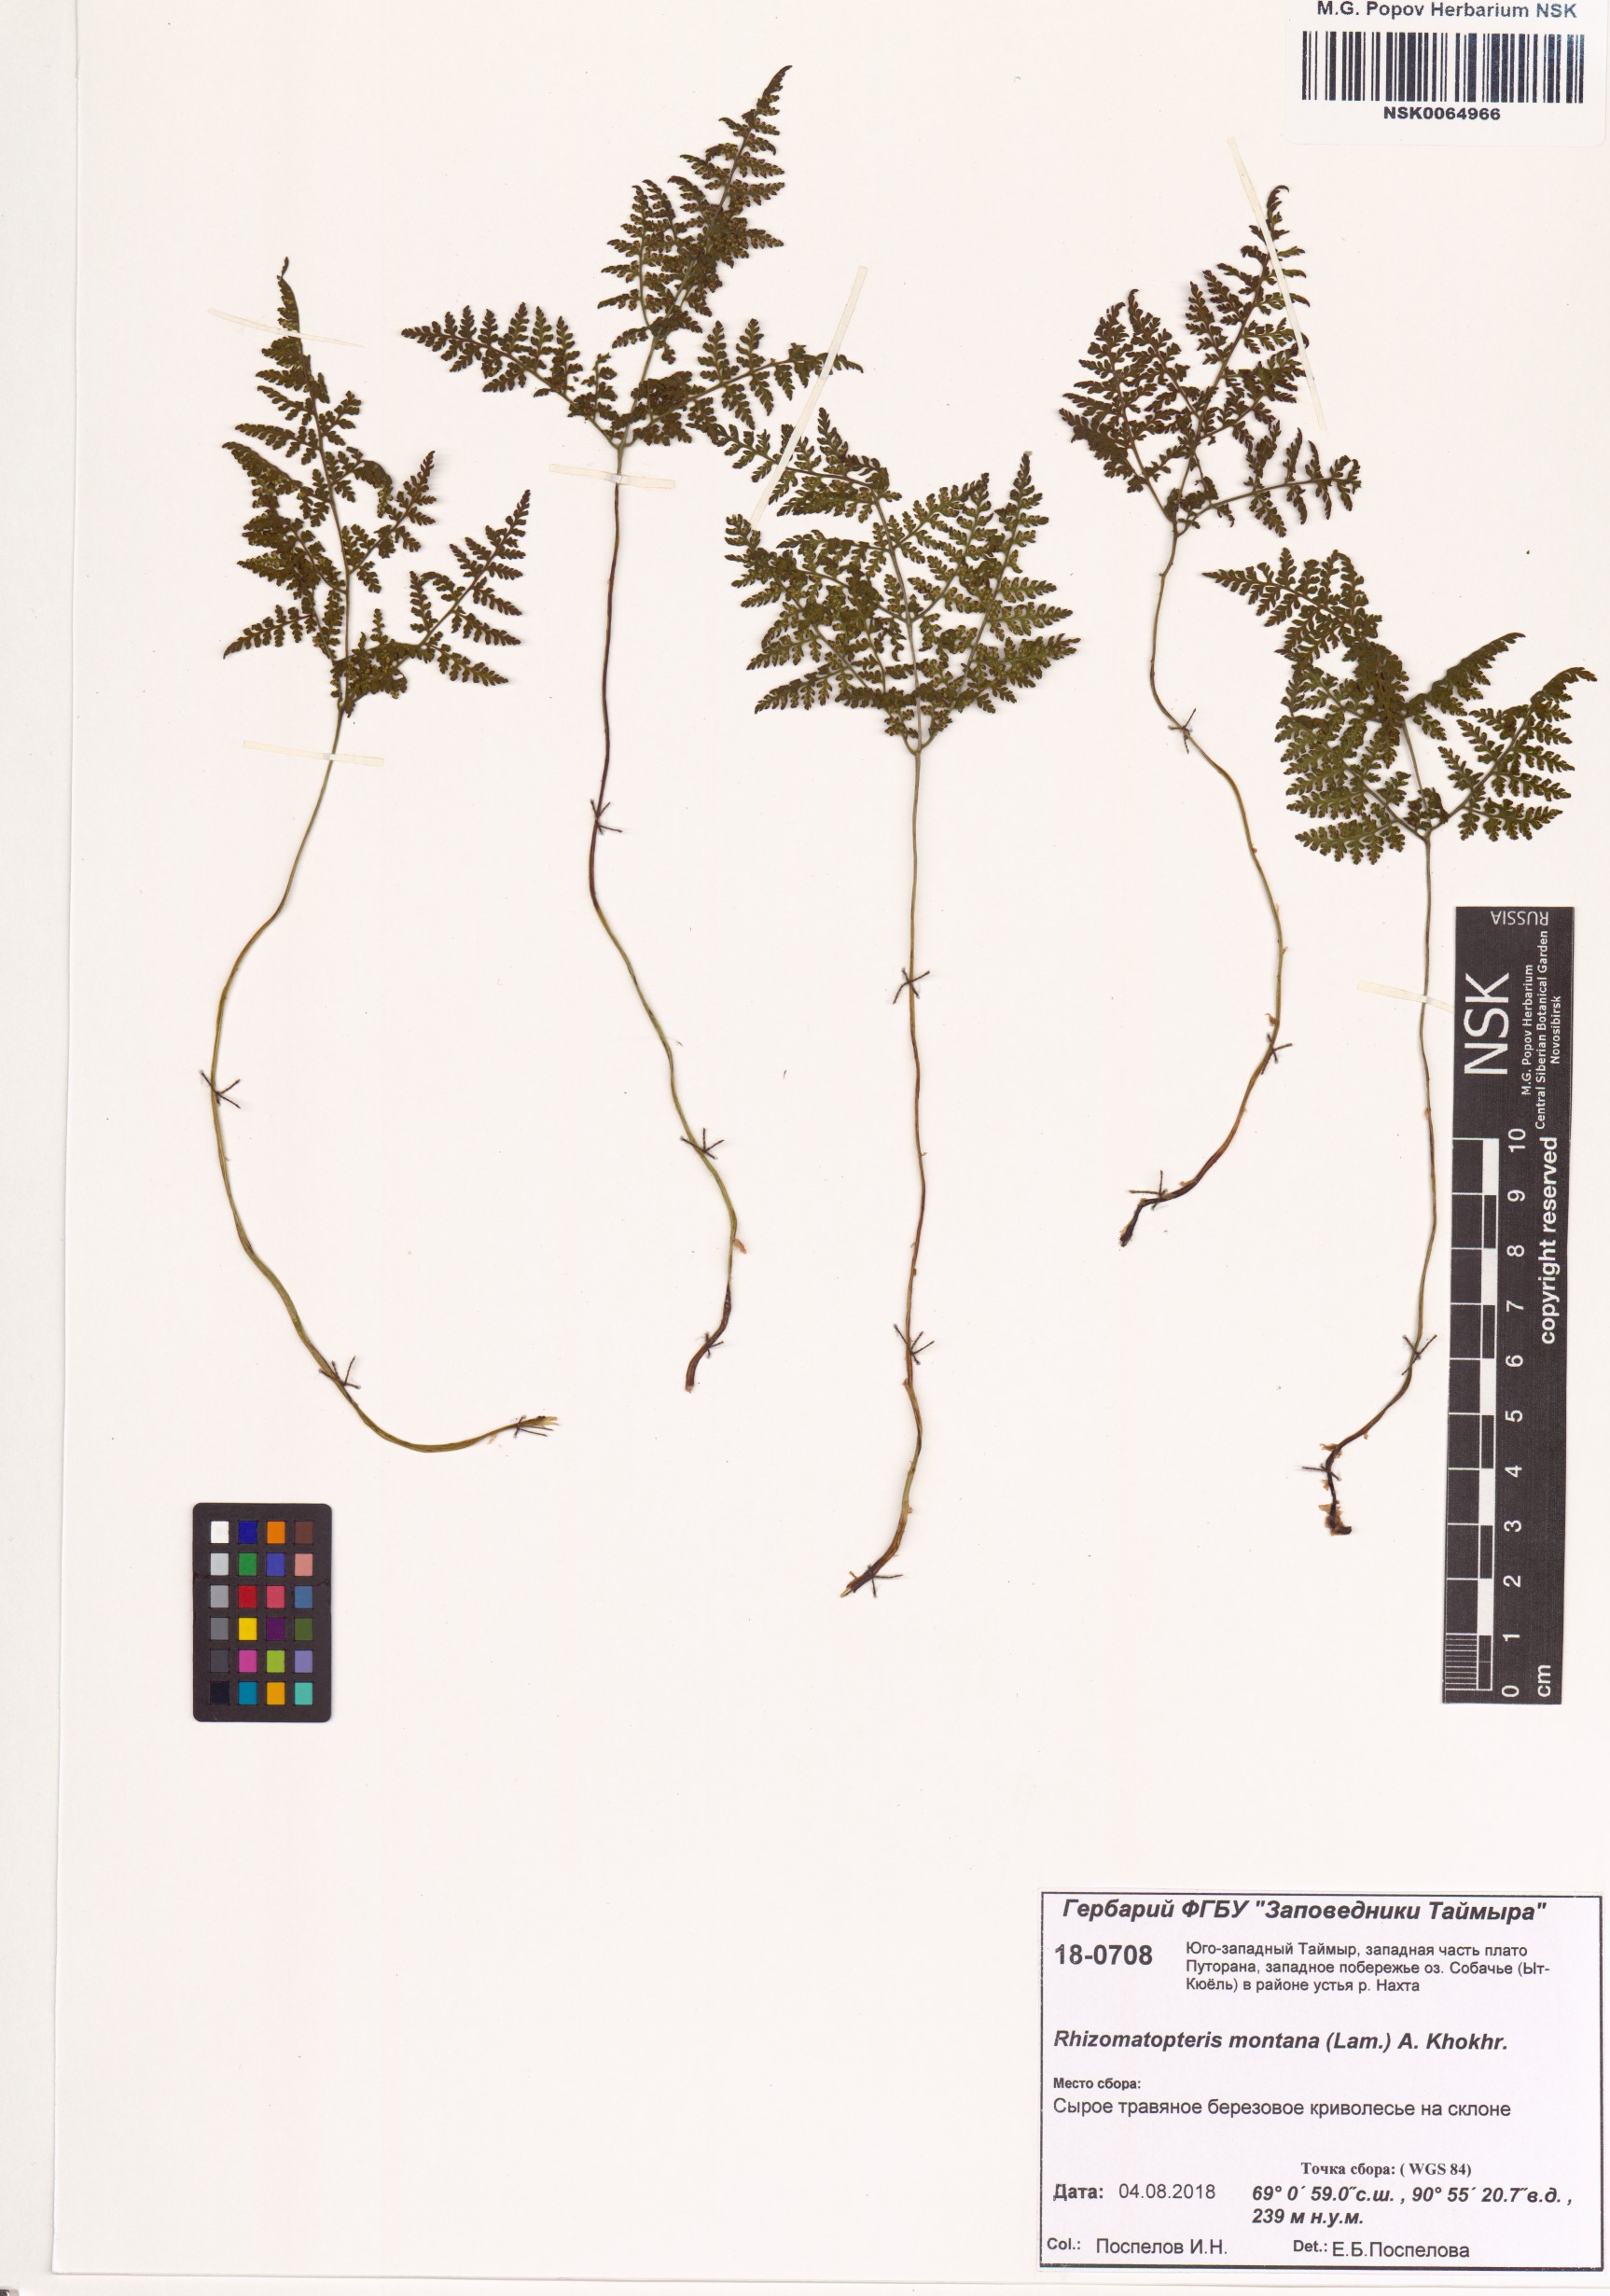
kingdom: Plantae
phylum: Tracheophyta
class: Polypodiopsida
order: Polypodiales
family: Cystopteridaceae
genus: Cystopteris
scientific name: Cystopteris montana
